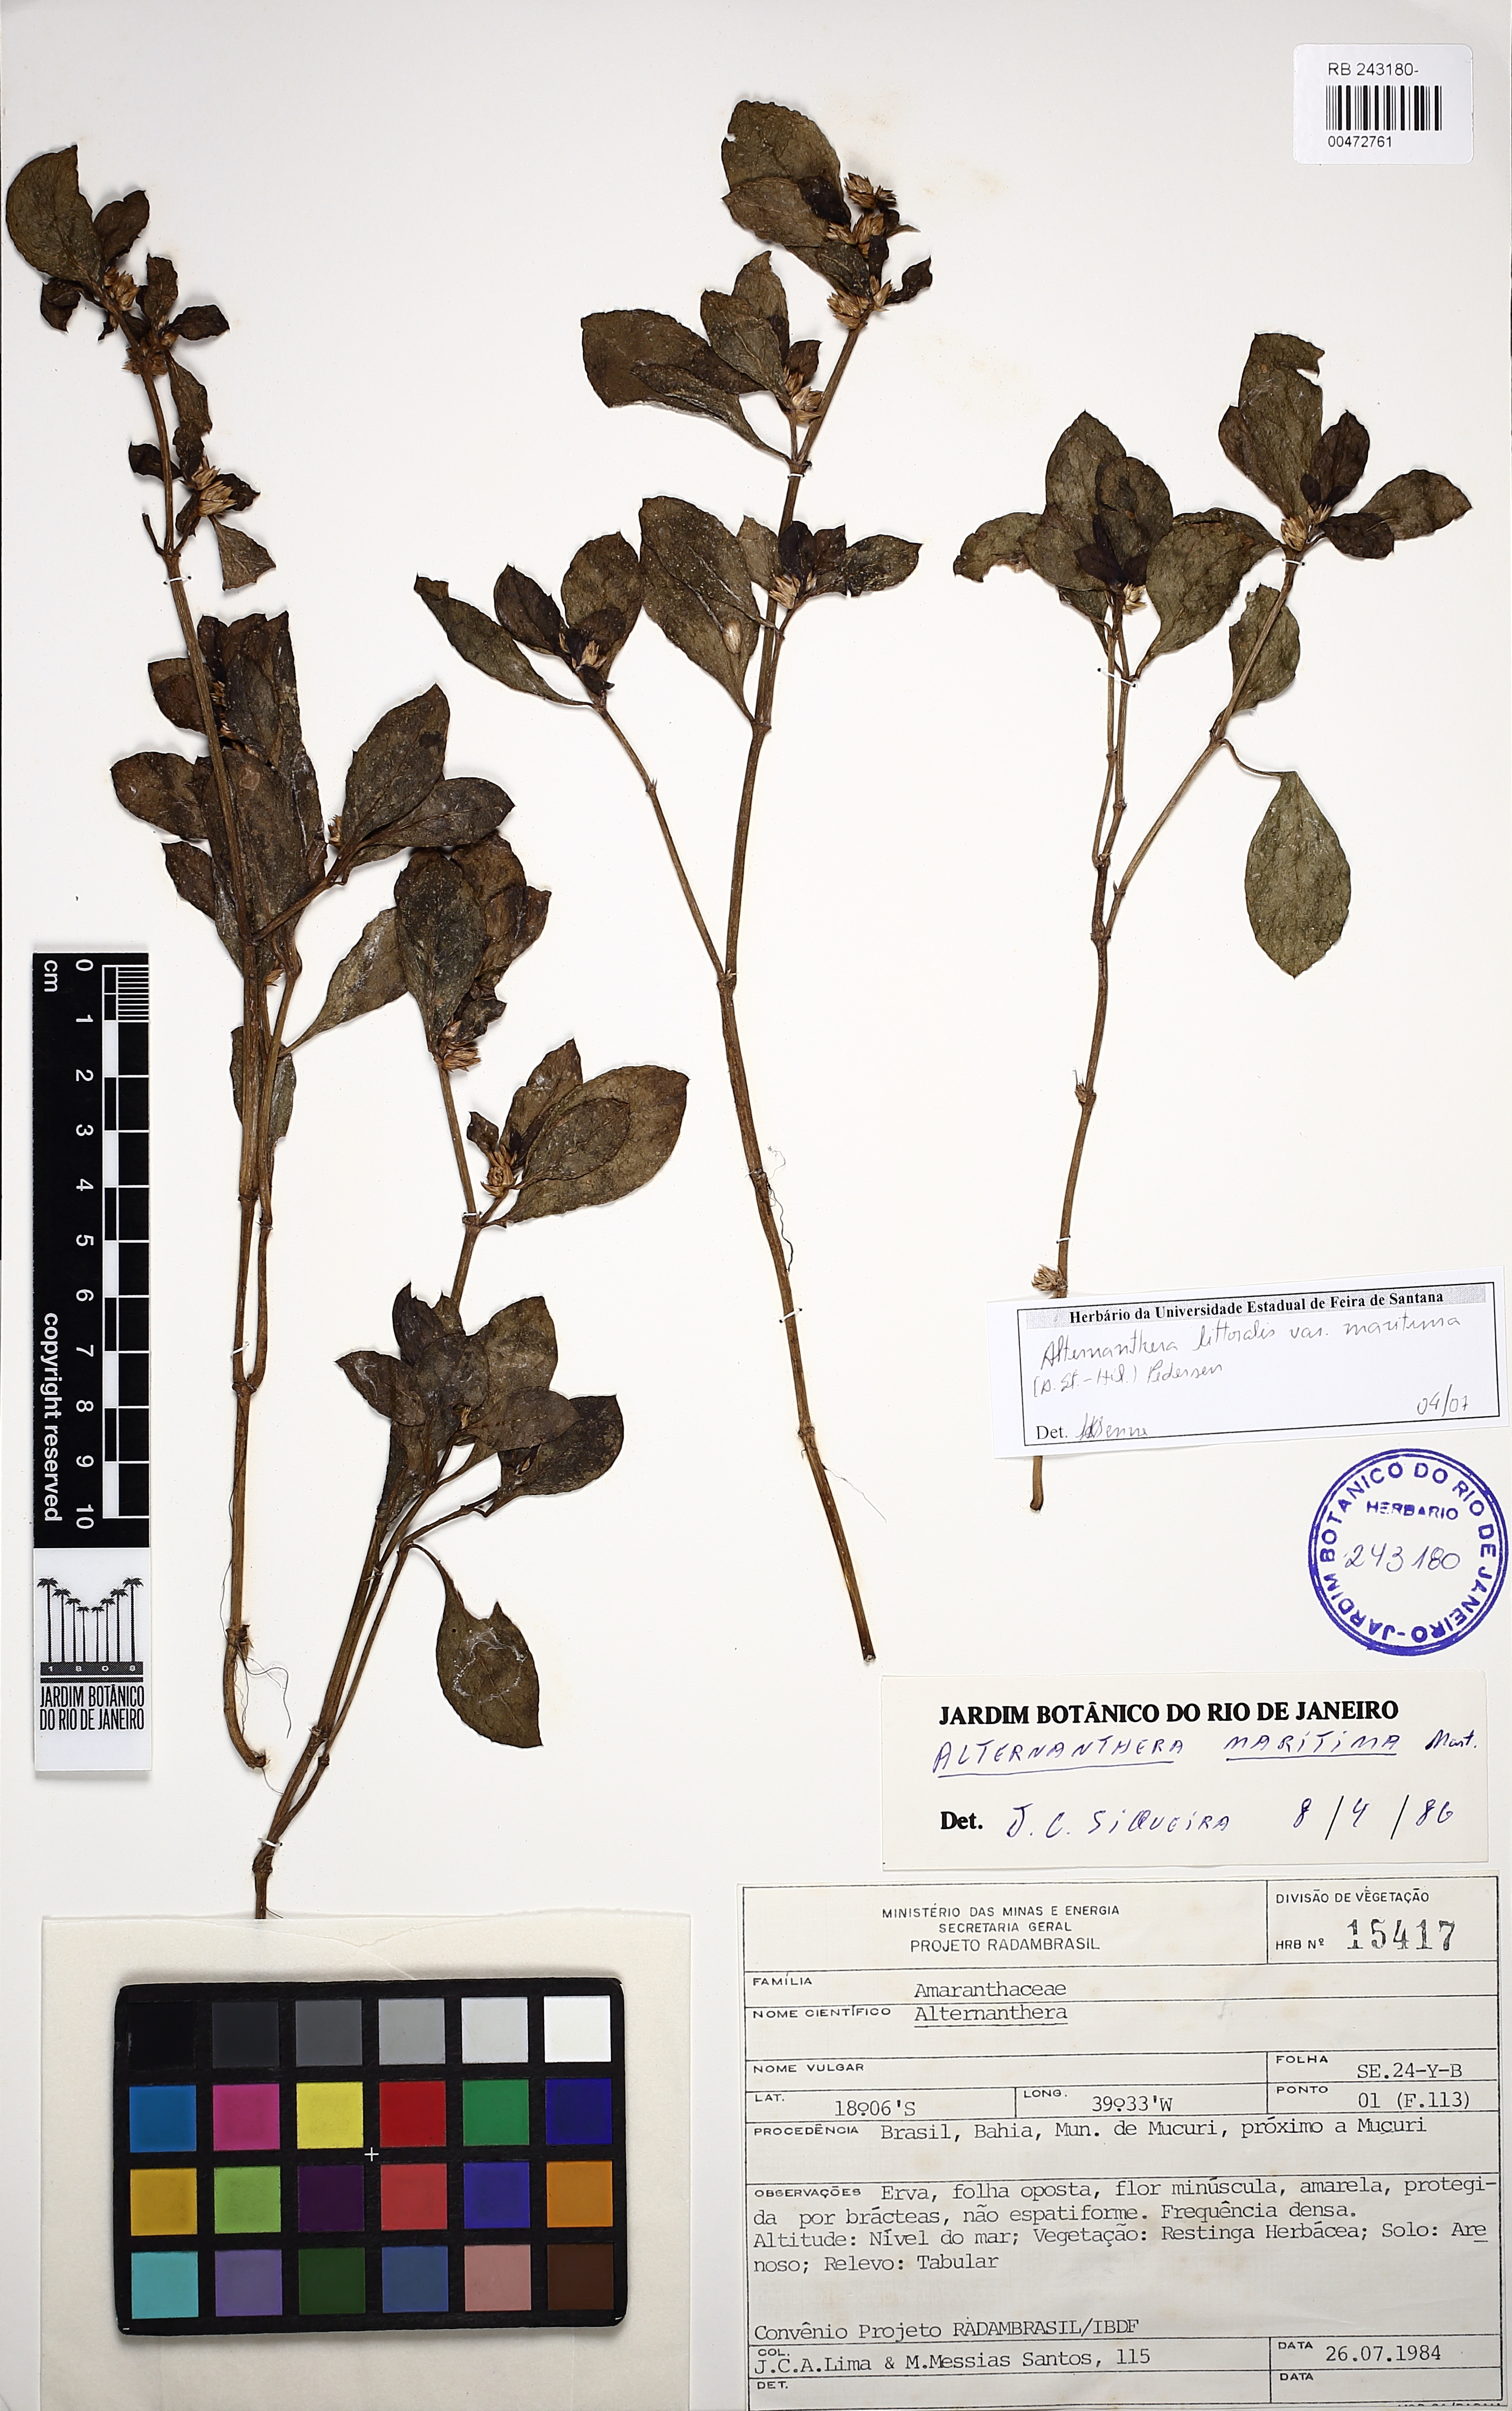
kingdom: Plantae
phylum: Tracheophyta
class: Magnoliopsida
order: Caryophyllales
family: Amaranthaceae
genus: Alternanthera
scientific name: Alternanthera littoralis
